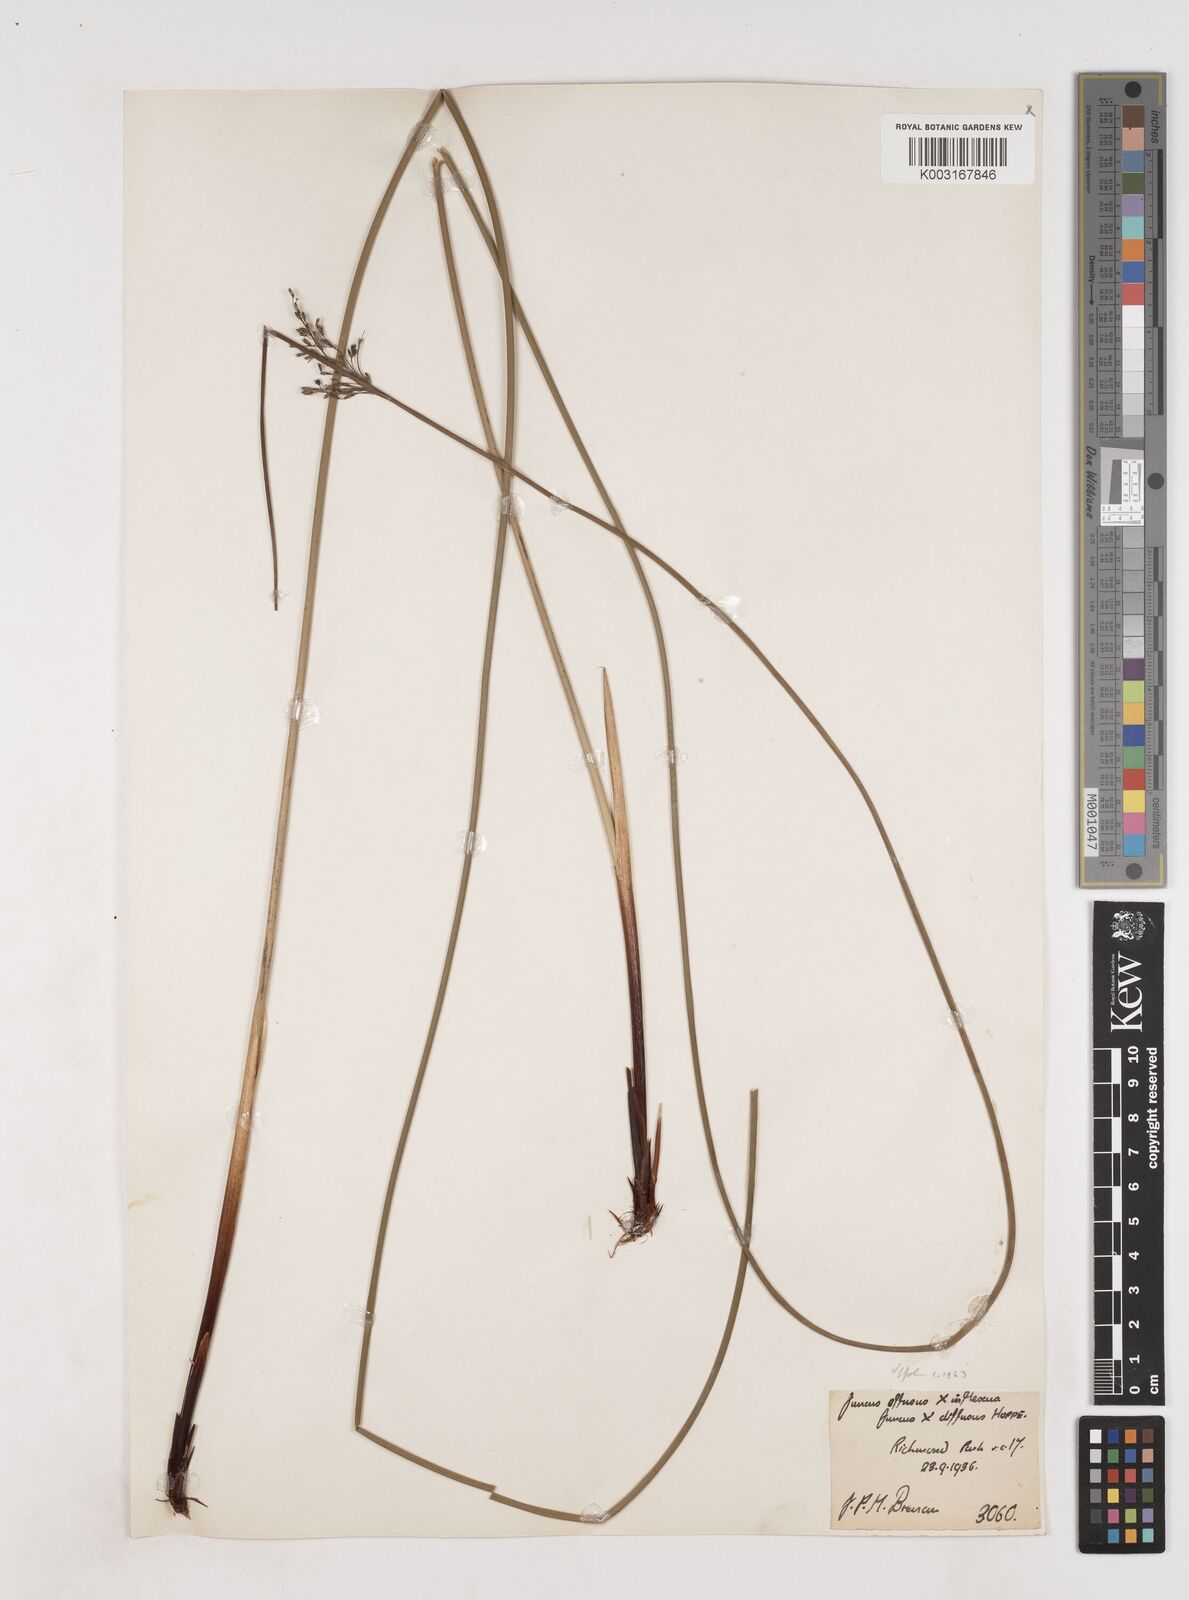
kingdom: Plantae
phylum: Tracheophyta
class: Liliopsida
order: Poales
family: Juncaceae
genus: Juncus
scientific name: Juncus effusus
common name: Soft rush
